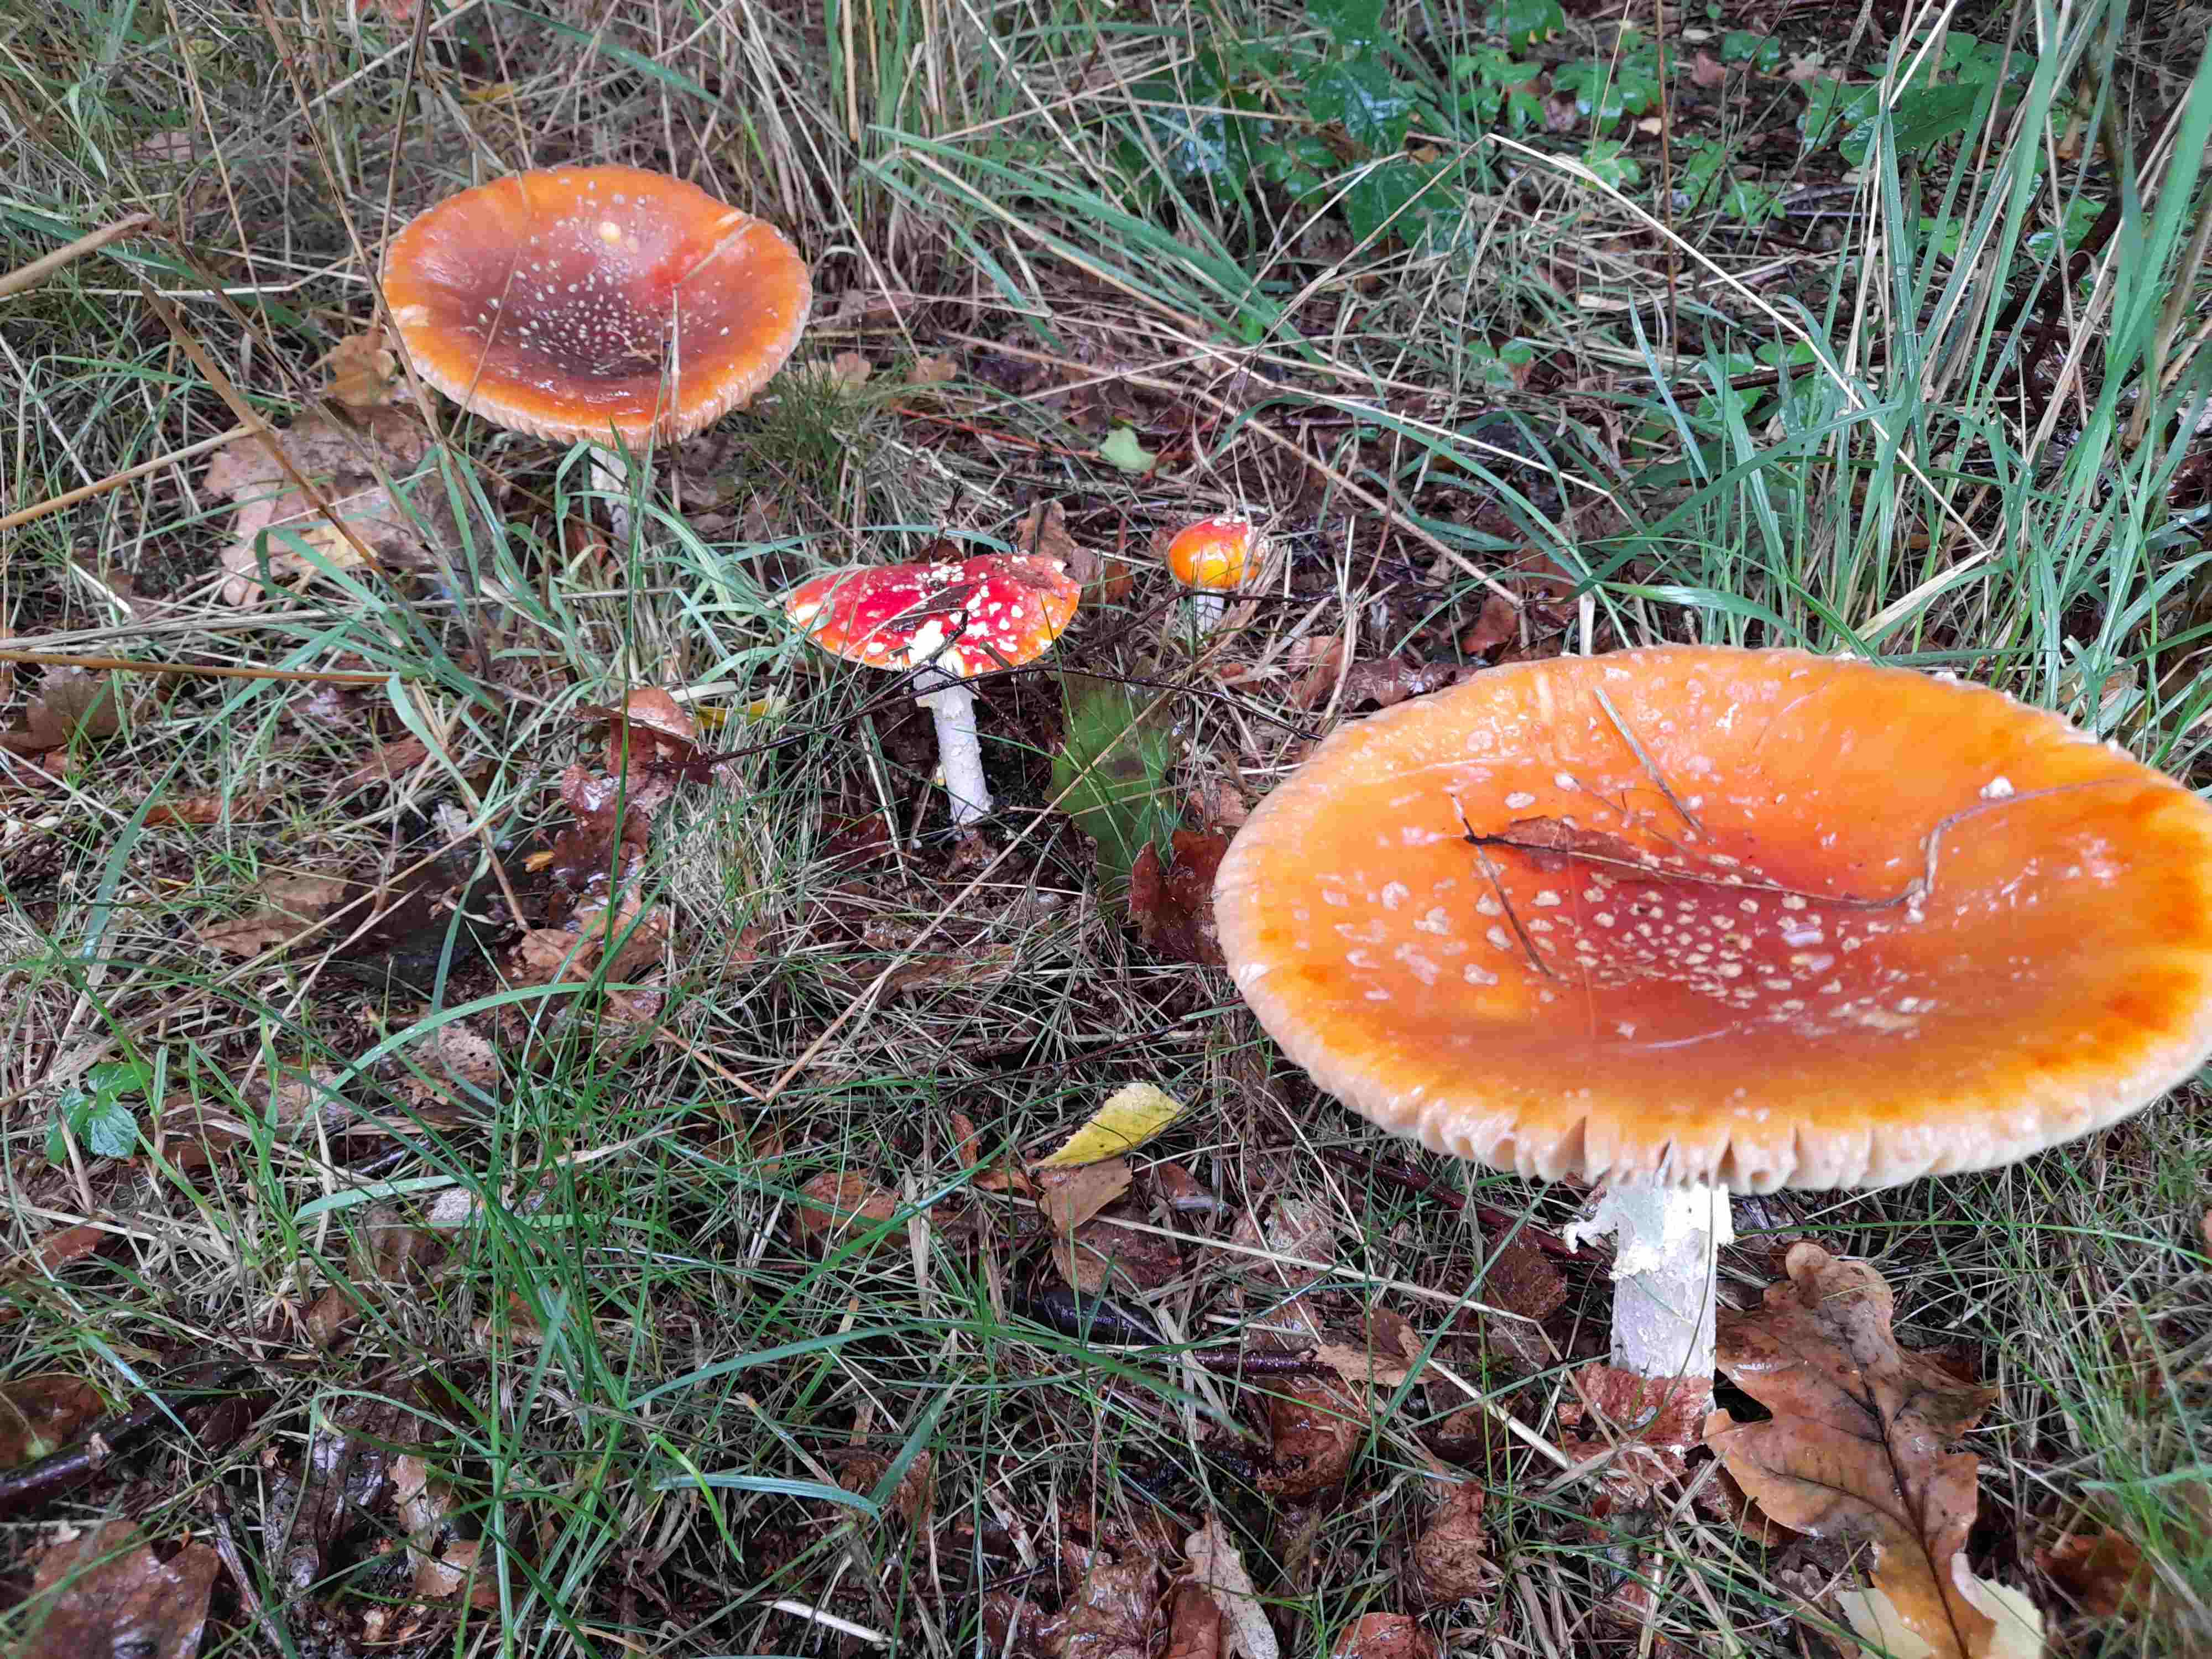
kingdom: Fungi
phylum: Basidiomycota
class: Agaricomycetes
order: Agaricales
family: Amanitaceae
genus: Amanita
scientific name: Amanita muscaria
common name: rød fluesvamp
